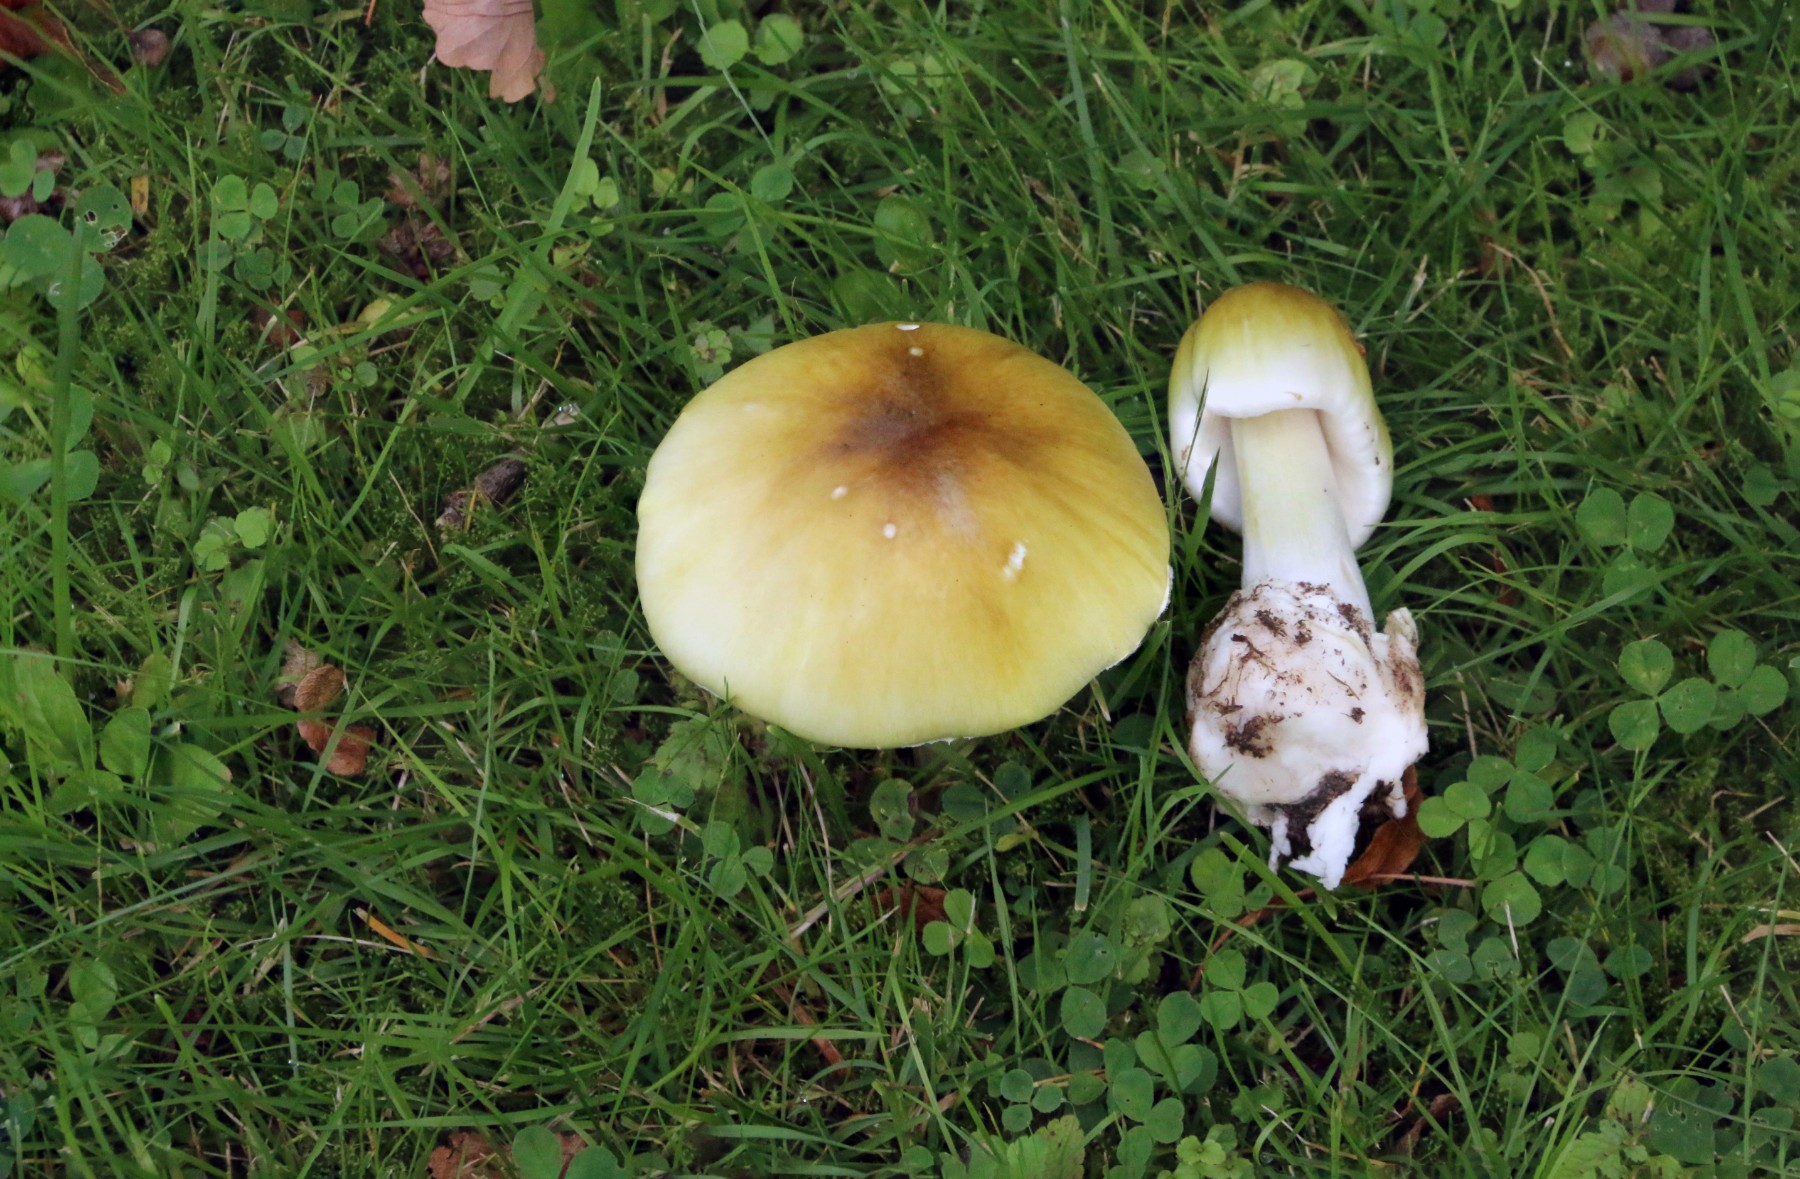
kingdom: Fungi
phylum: Basidiomycota
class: Agaricomycetes
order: Agaricales
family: Amanitaceae
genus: Amanita
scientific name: Amanita phalloides
